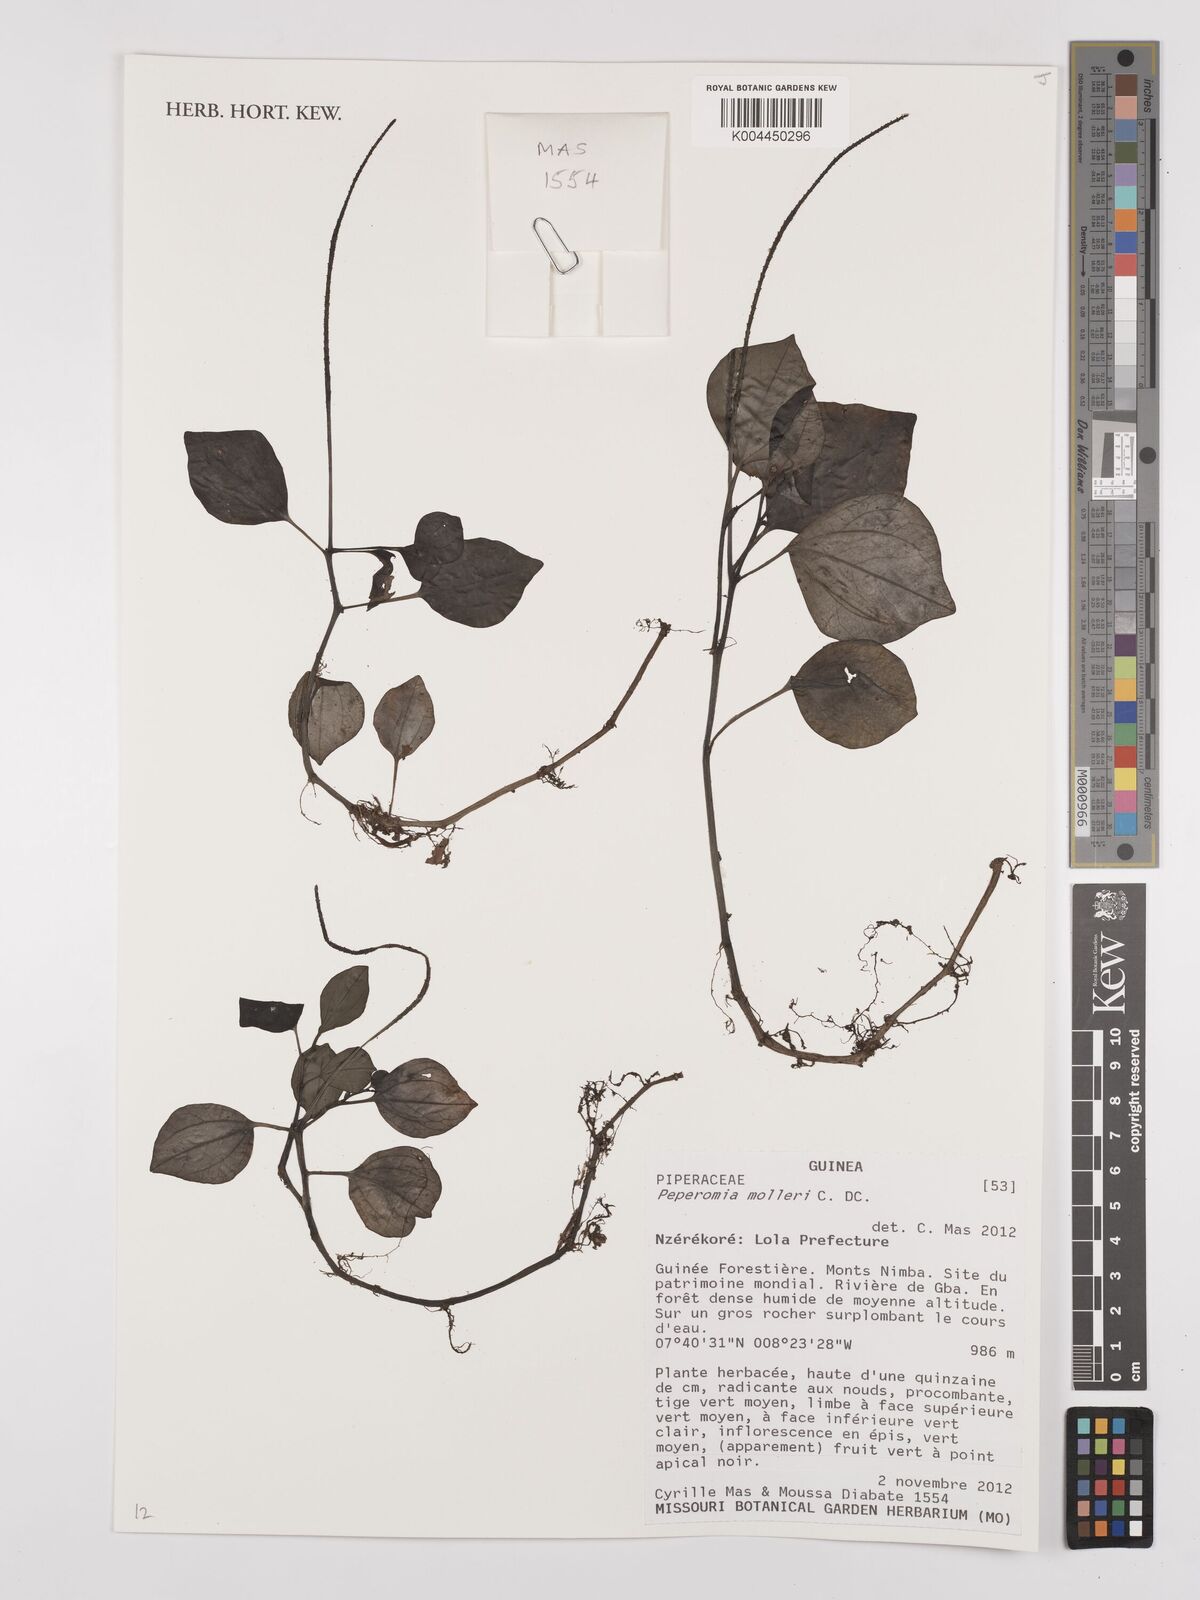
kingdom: Plantae
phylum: Tracheophyta
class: Magnoliopsida
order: Piperales
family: Piperaceae
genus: Peperomia
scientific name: Peperomia molleri
